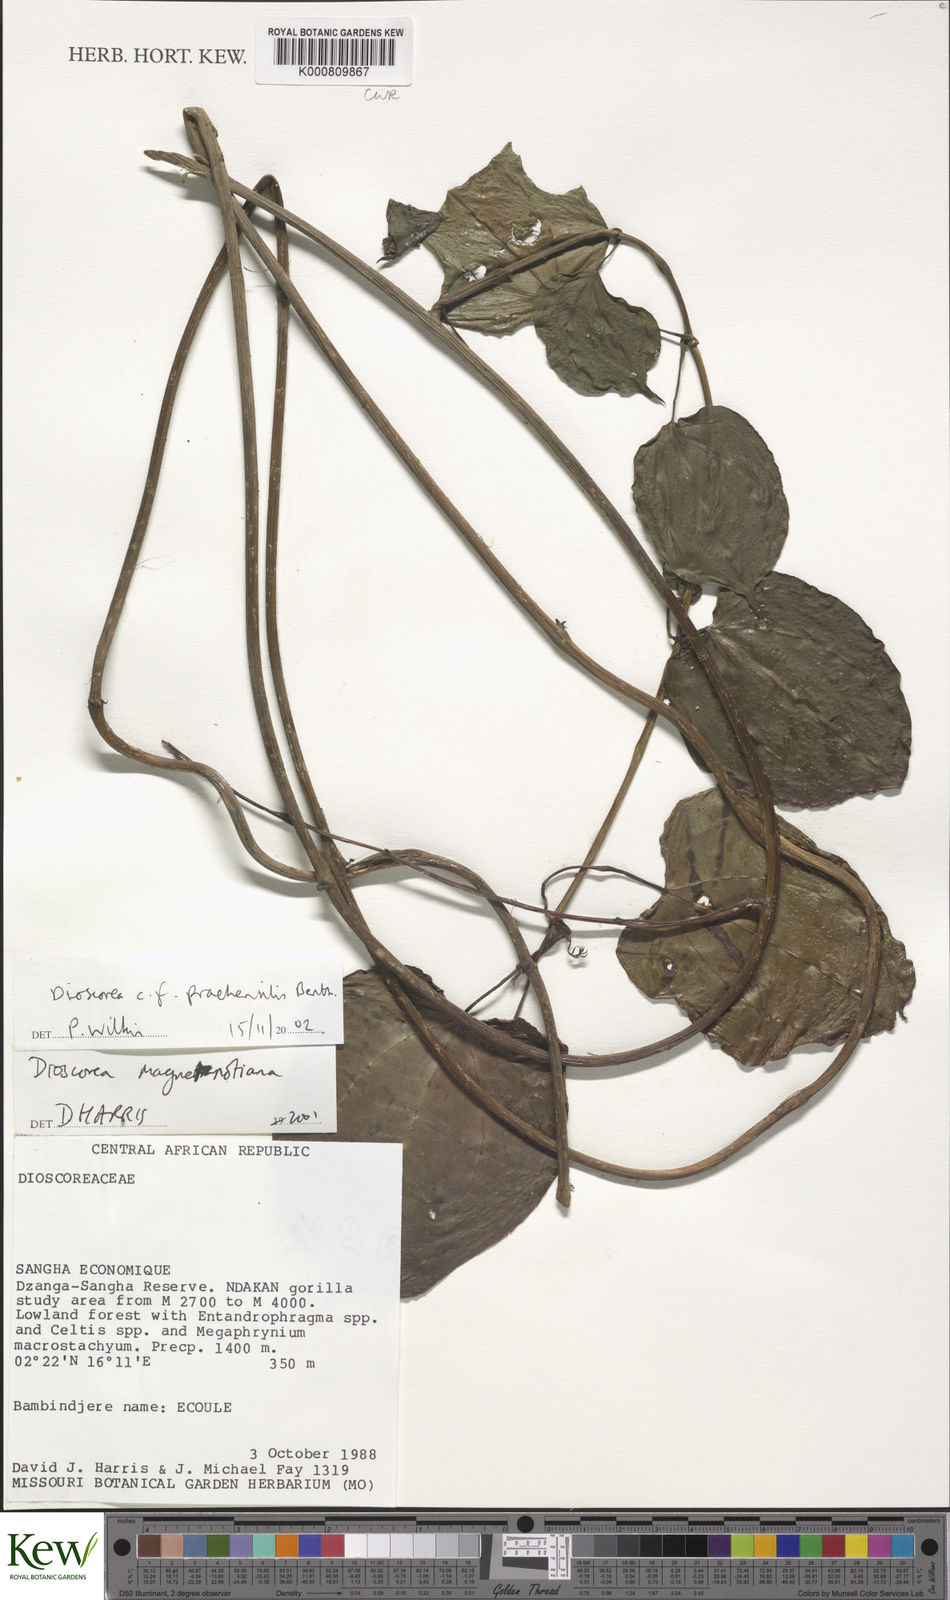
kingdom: Plantae
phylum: Tracheophyta
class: Liliopsida
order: Dioscoreales
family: Dioscoreaceae
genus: Dioscorea
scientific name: Dioscorea praehensilis
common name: Bush yam
